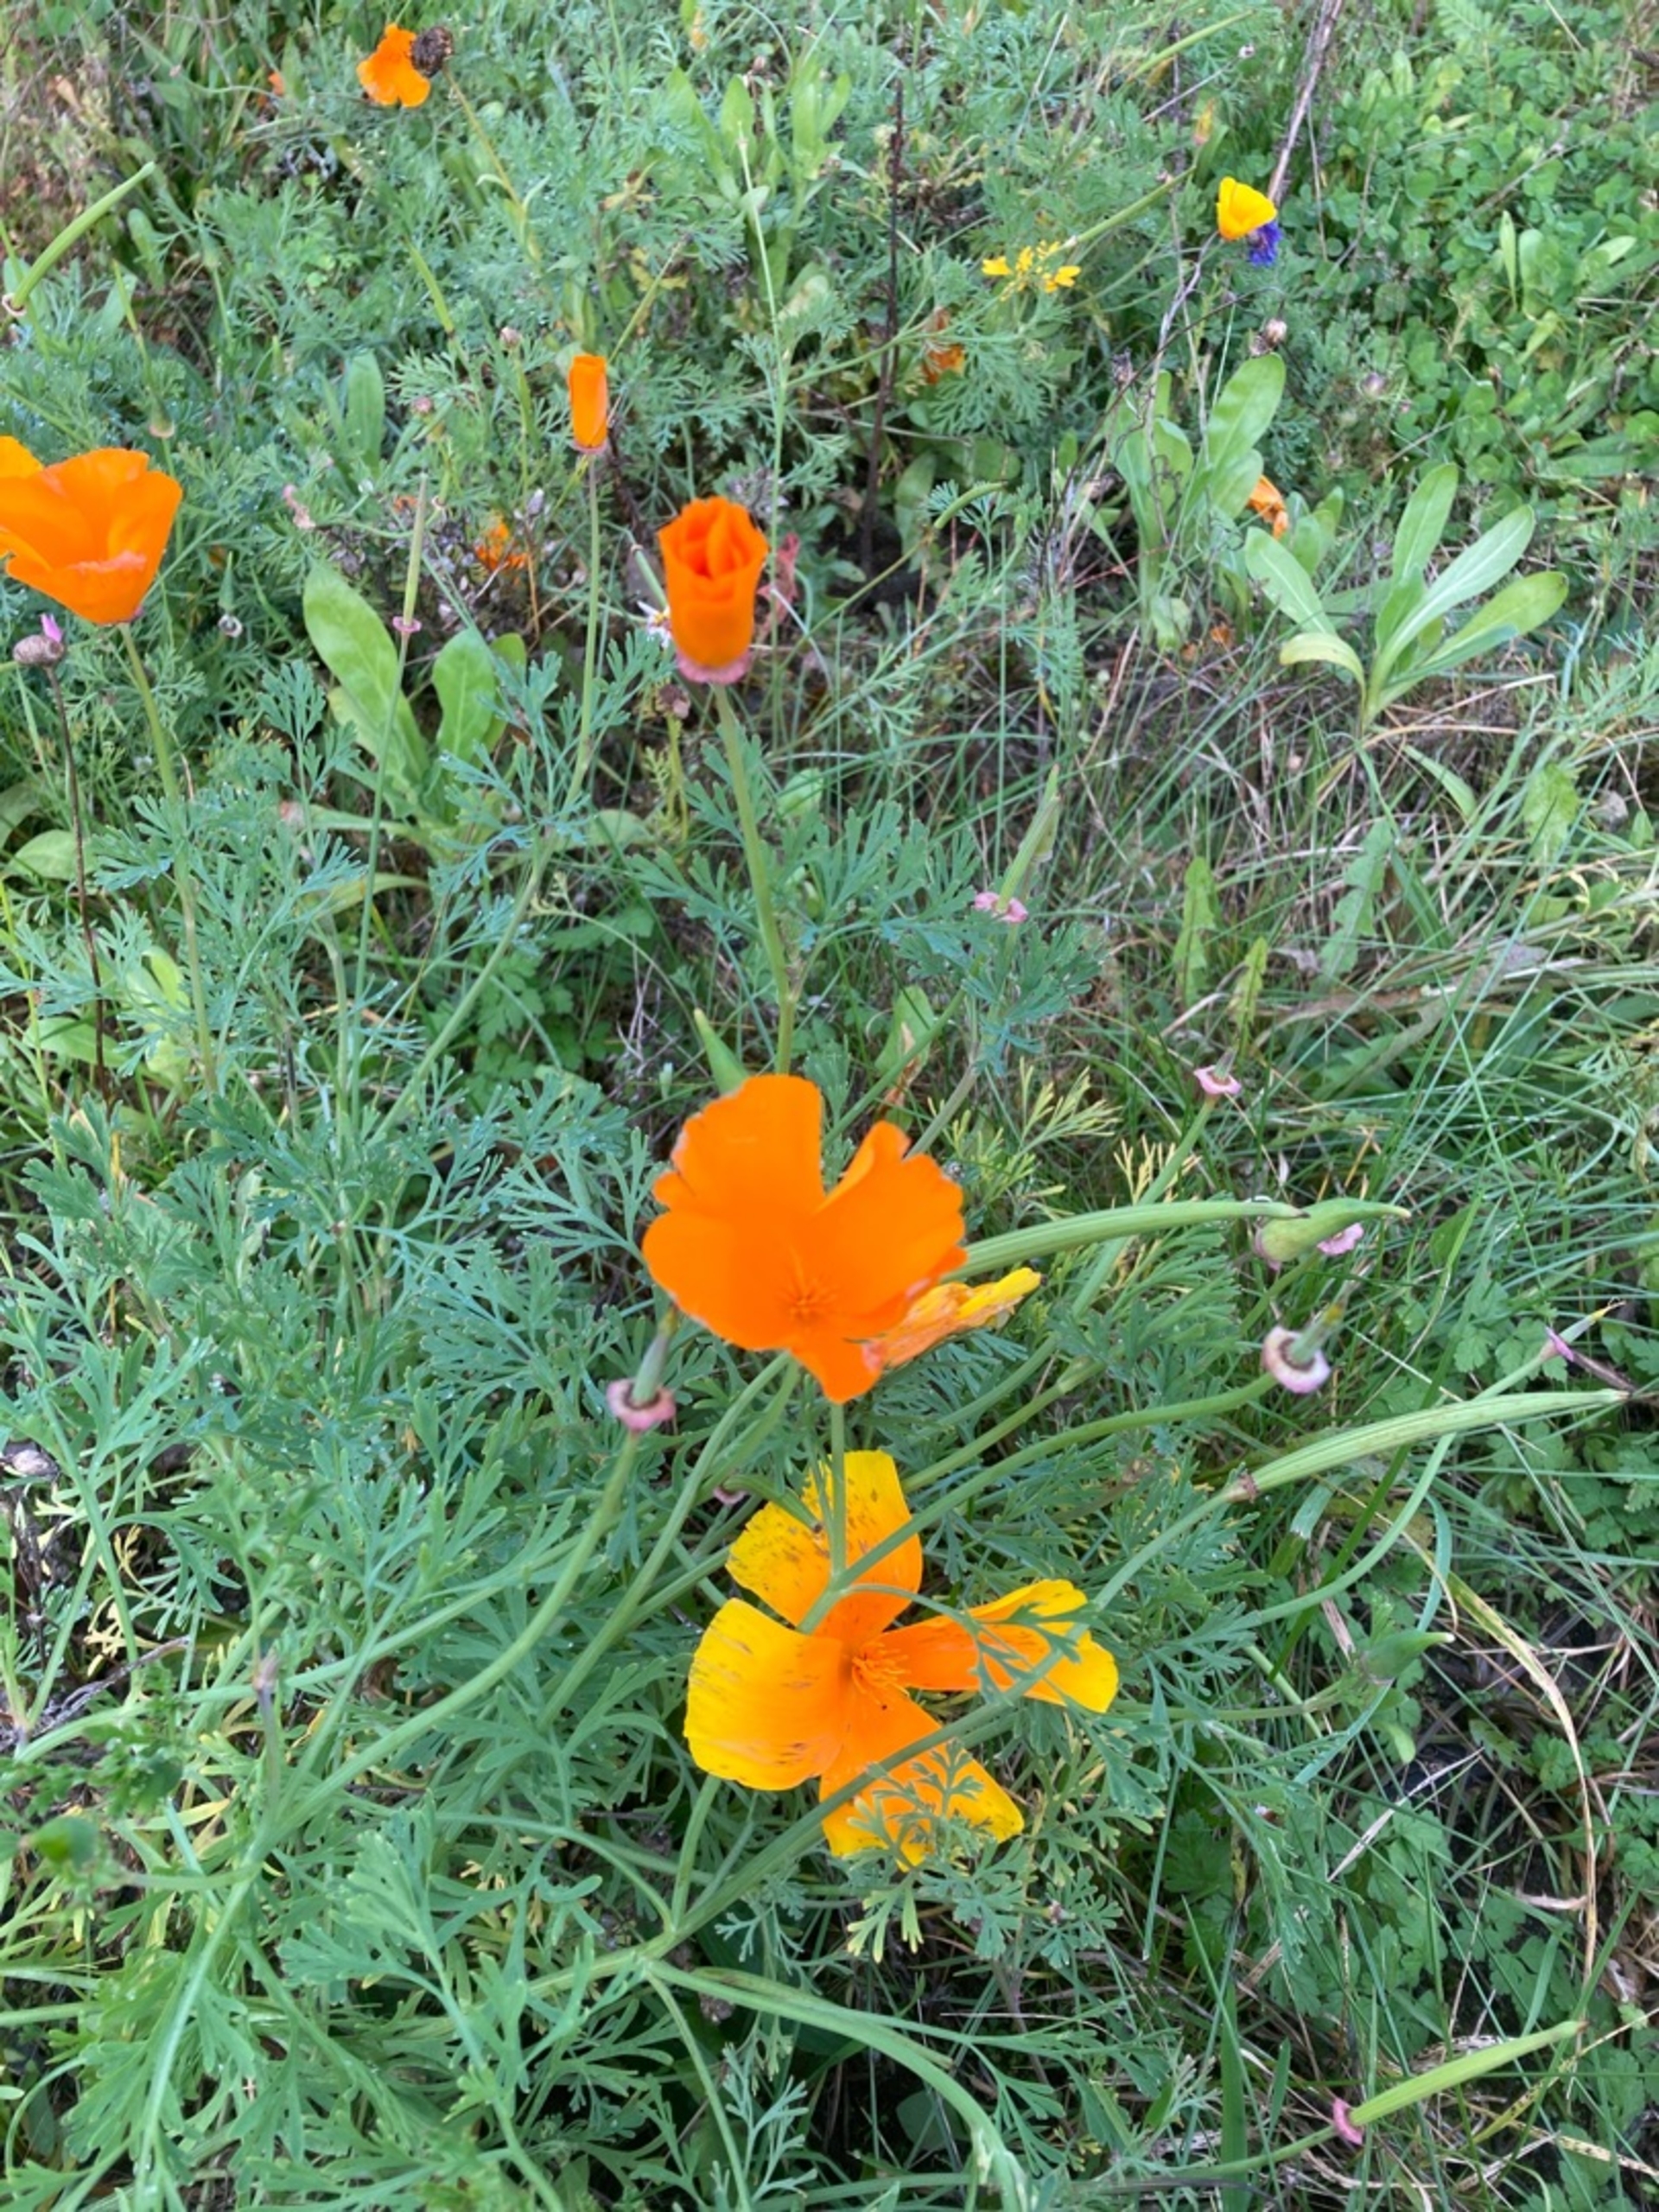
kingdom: Plantae
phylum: Tracheophyta
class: Magnoliopsida
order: Ranunculales
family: Papaveraceae
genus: Eschscholzia
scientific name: Eschscholzia californica
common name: Guldvalmue
